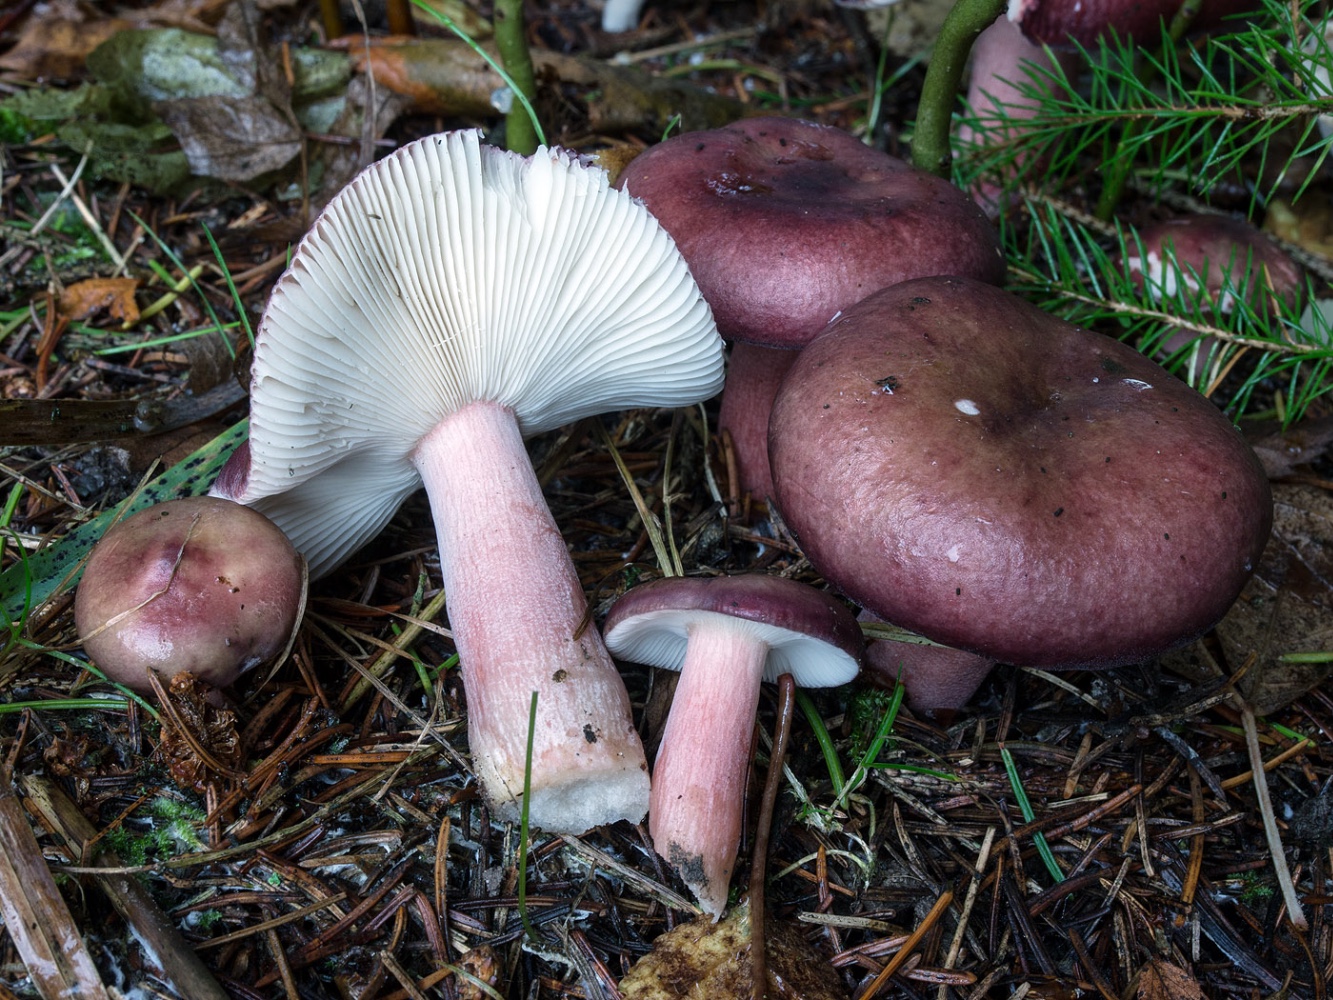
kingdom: Fungi
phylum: Basidiomycota
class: Agaricomycetes
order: Russulales
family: Russulaceae
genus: Russula
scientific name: Russula queletii
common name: Quélets skørhat
